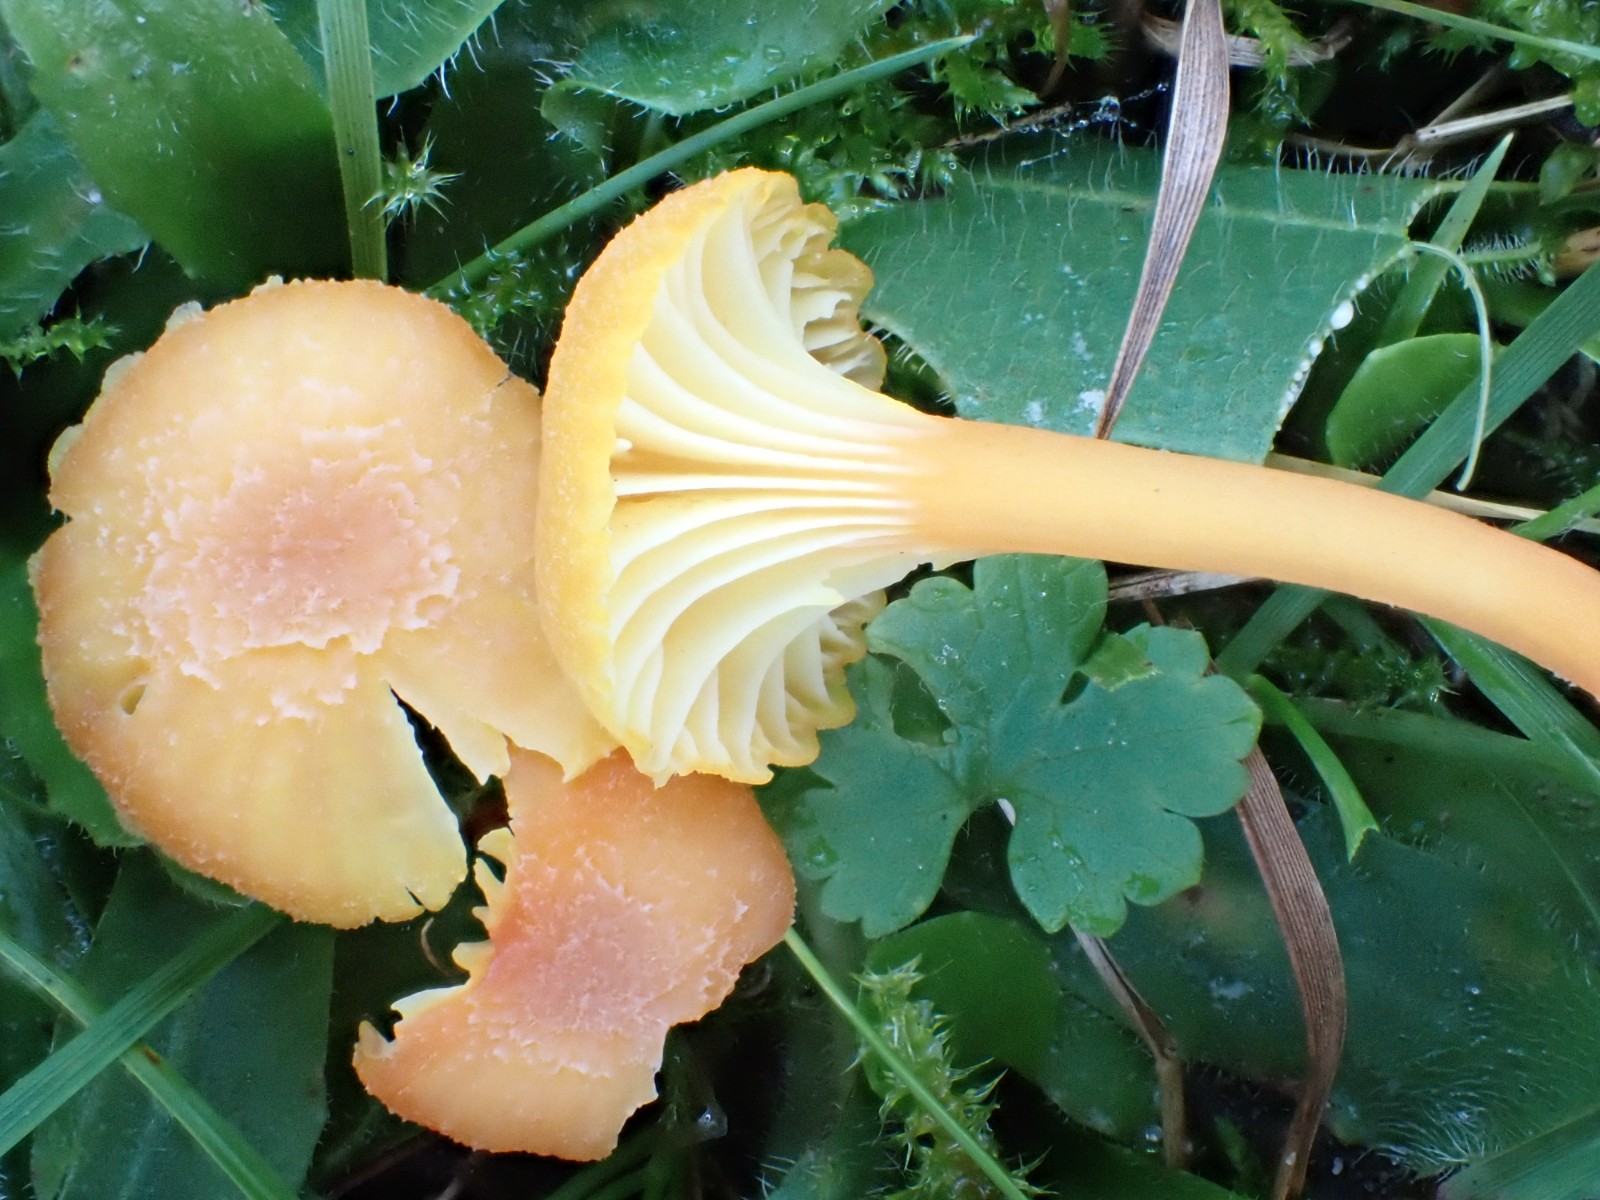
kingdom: Fungi
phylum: Basidiomycota
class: Agaricomycetes
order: Agaricales
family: Hygrophoraceae
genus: Hygrocybe
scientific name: Hygrocybe cantharellus
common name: kantarel-vokshat
